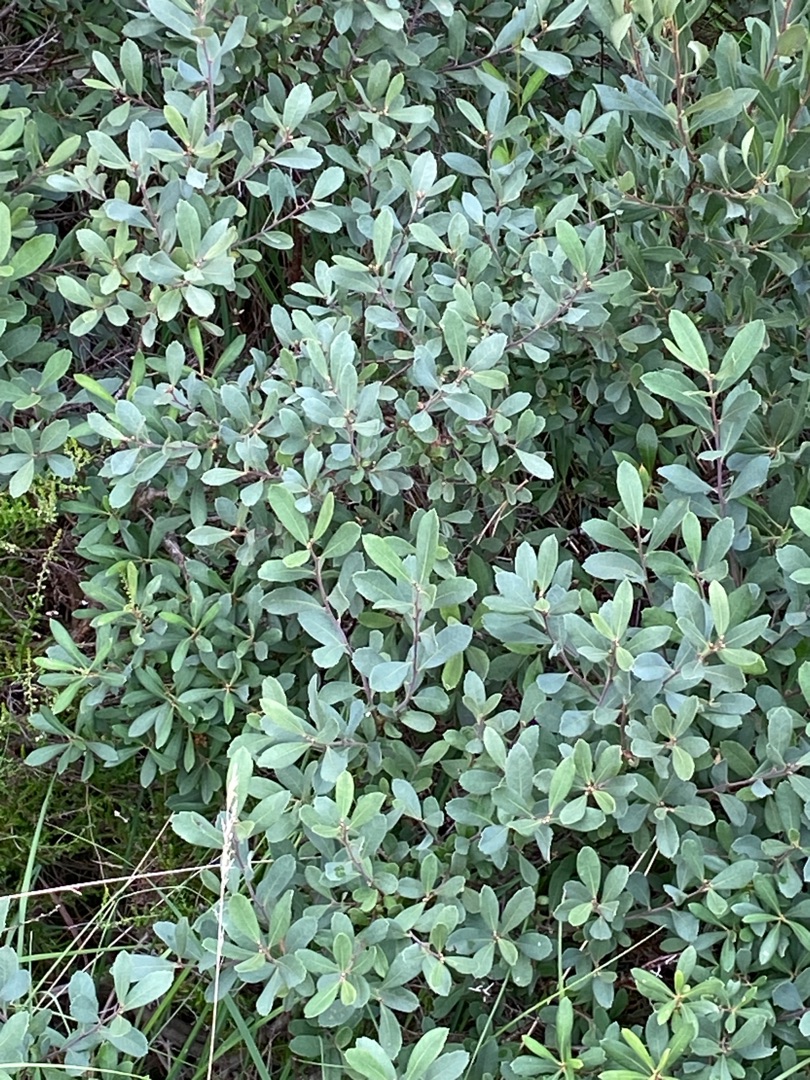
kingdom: Plantae
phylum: Tracheophyta
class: Magnoliopsida
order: Fagales
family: Myricaceae
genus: Myrica
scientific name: Myrica gale
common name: Pors
